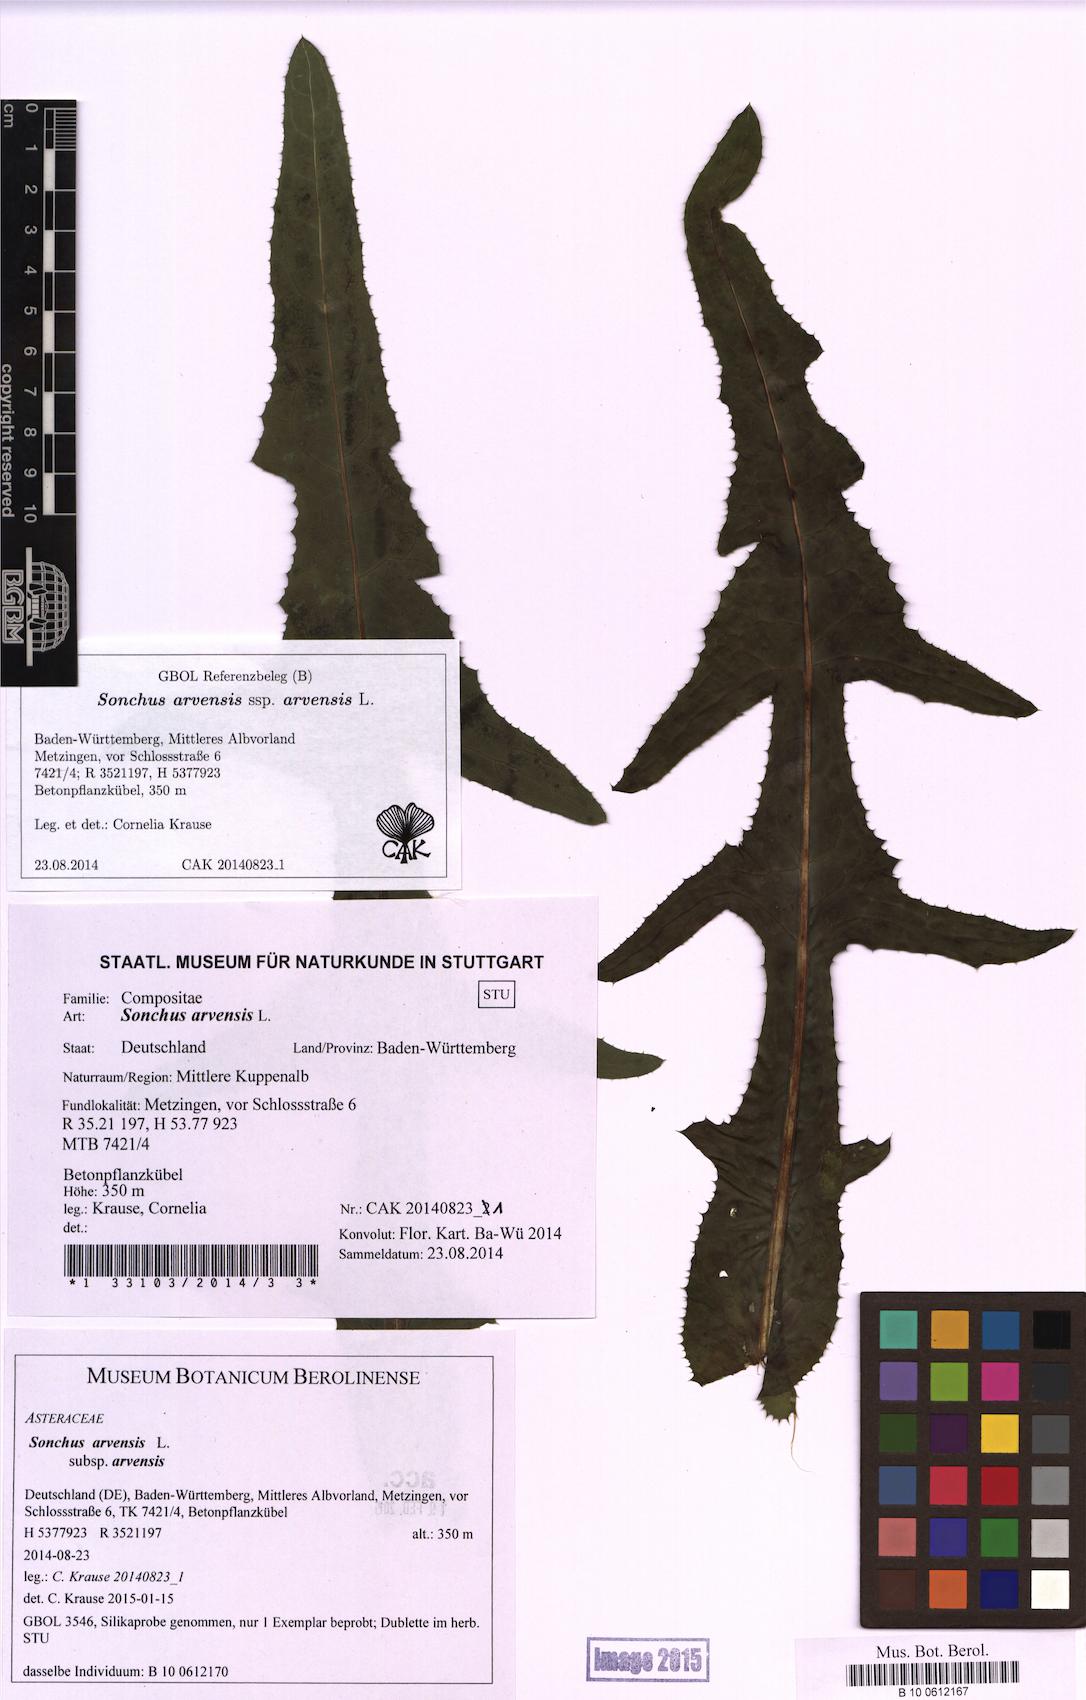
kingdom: Plantae
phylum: Tracheophyta
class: Magnoliopsida
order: Asterales
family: Asteraceae
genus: Sonchus
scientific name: Sonchus arvensis
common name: Perennial sow-thistle
